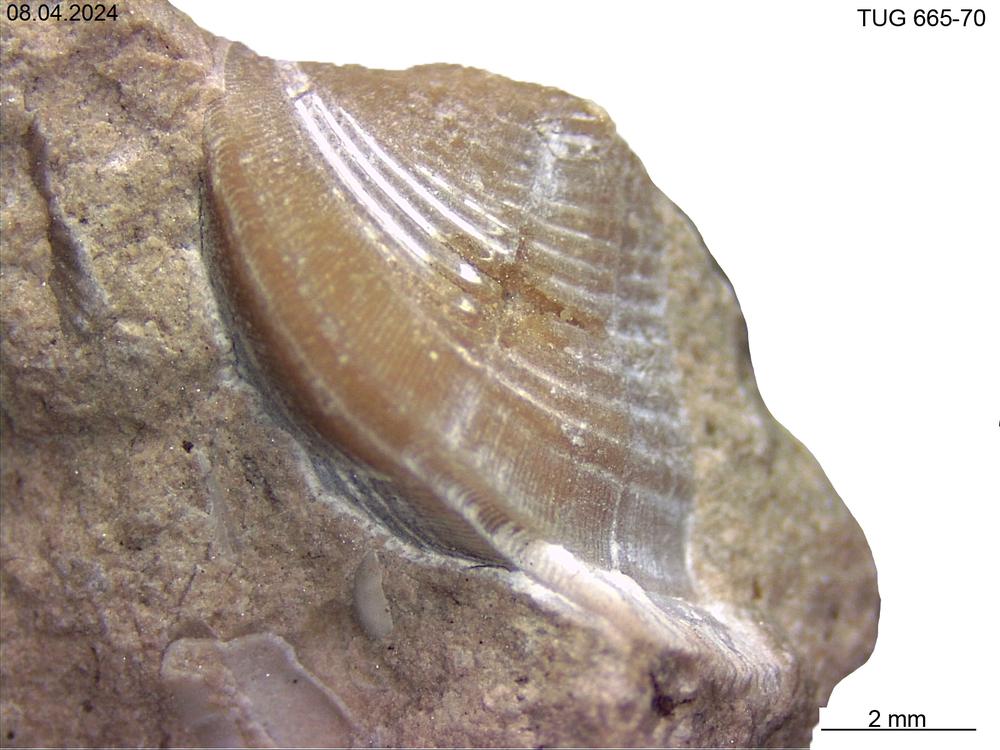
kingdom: Animalia
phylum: Mollusca
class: Rostroconchia
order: Conocardiida
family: Hippocardiidae
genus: Hippocardia
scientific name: Hippocardia
